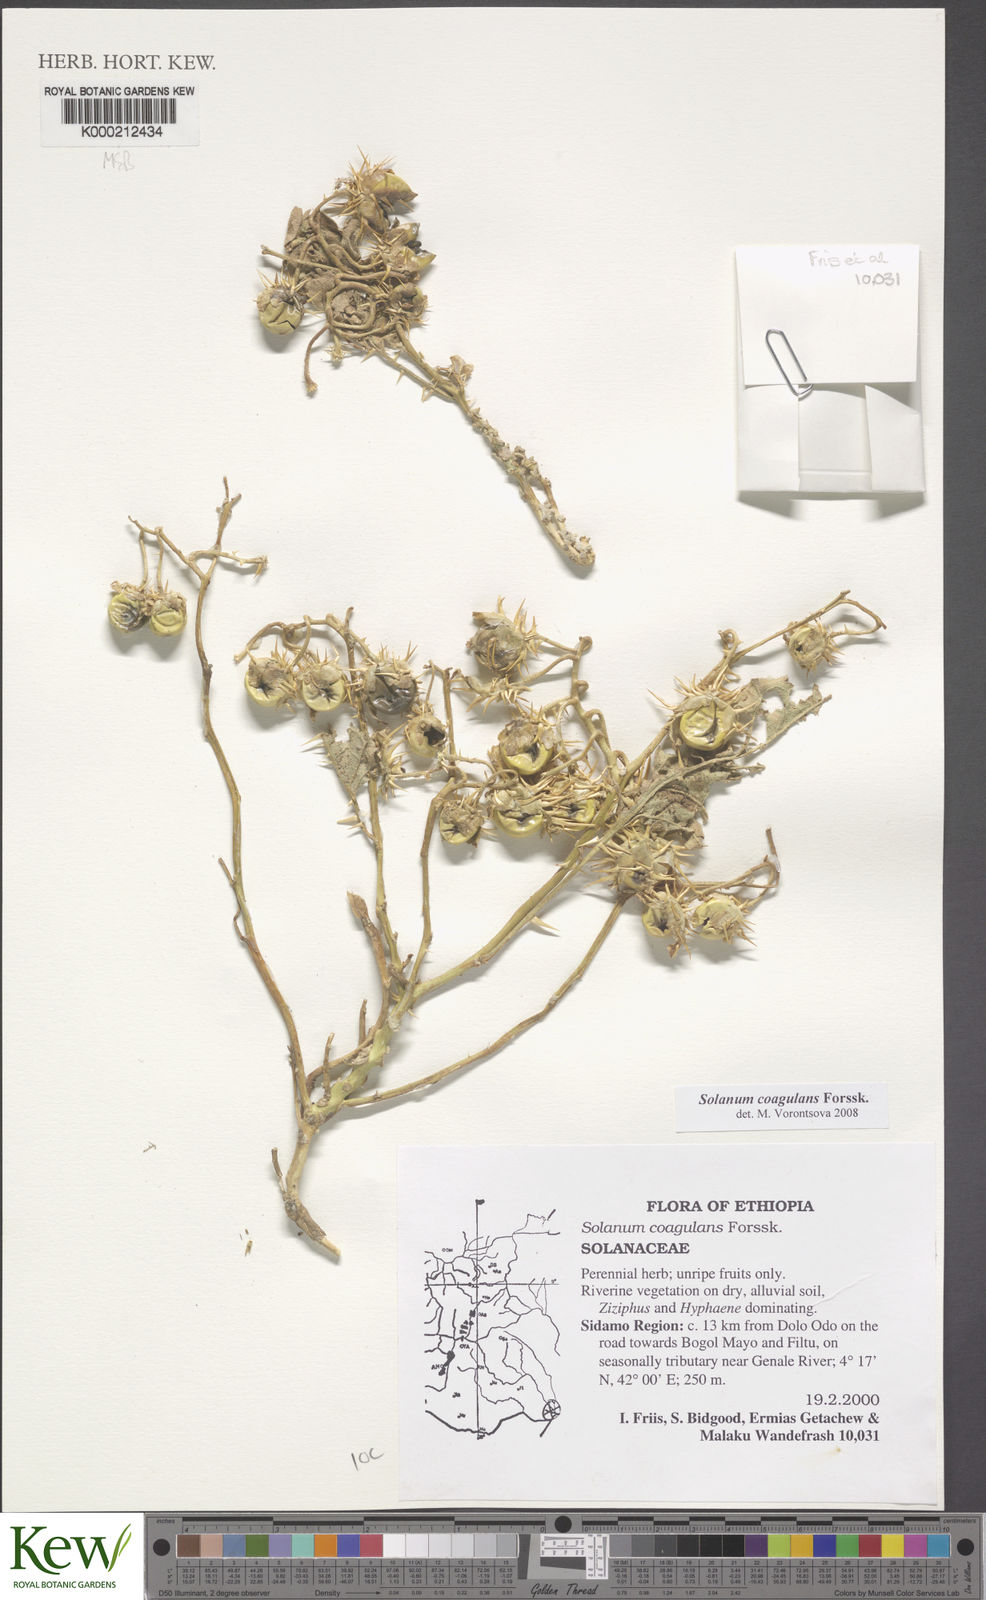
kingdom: Plantae
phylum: Tracheophyta
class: Magnoliopsida
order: Solanales
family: Solanaceae
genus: Solanum
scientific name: Solanum coagulans
